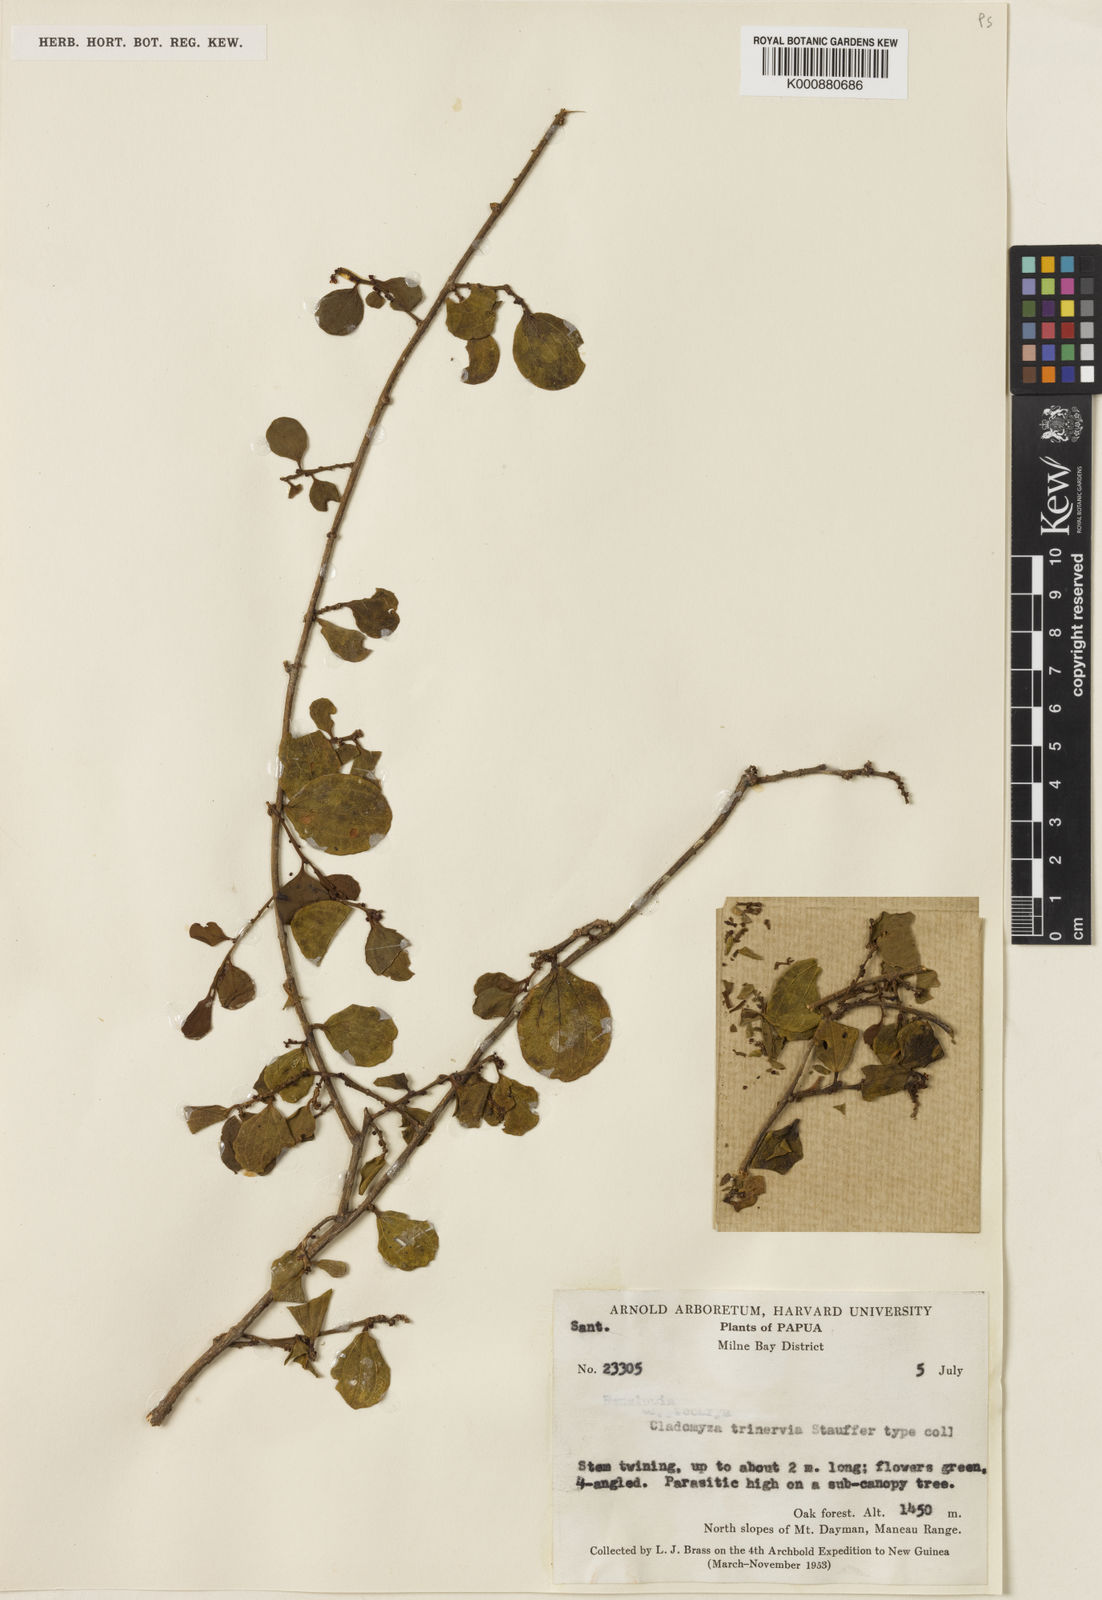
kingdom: Plantae
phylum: Tracheophyta
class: Magnoliopsida
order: Santalales
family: Amphorogynaceae
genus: Cladomyza
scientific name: Cladomyza trinervia
